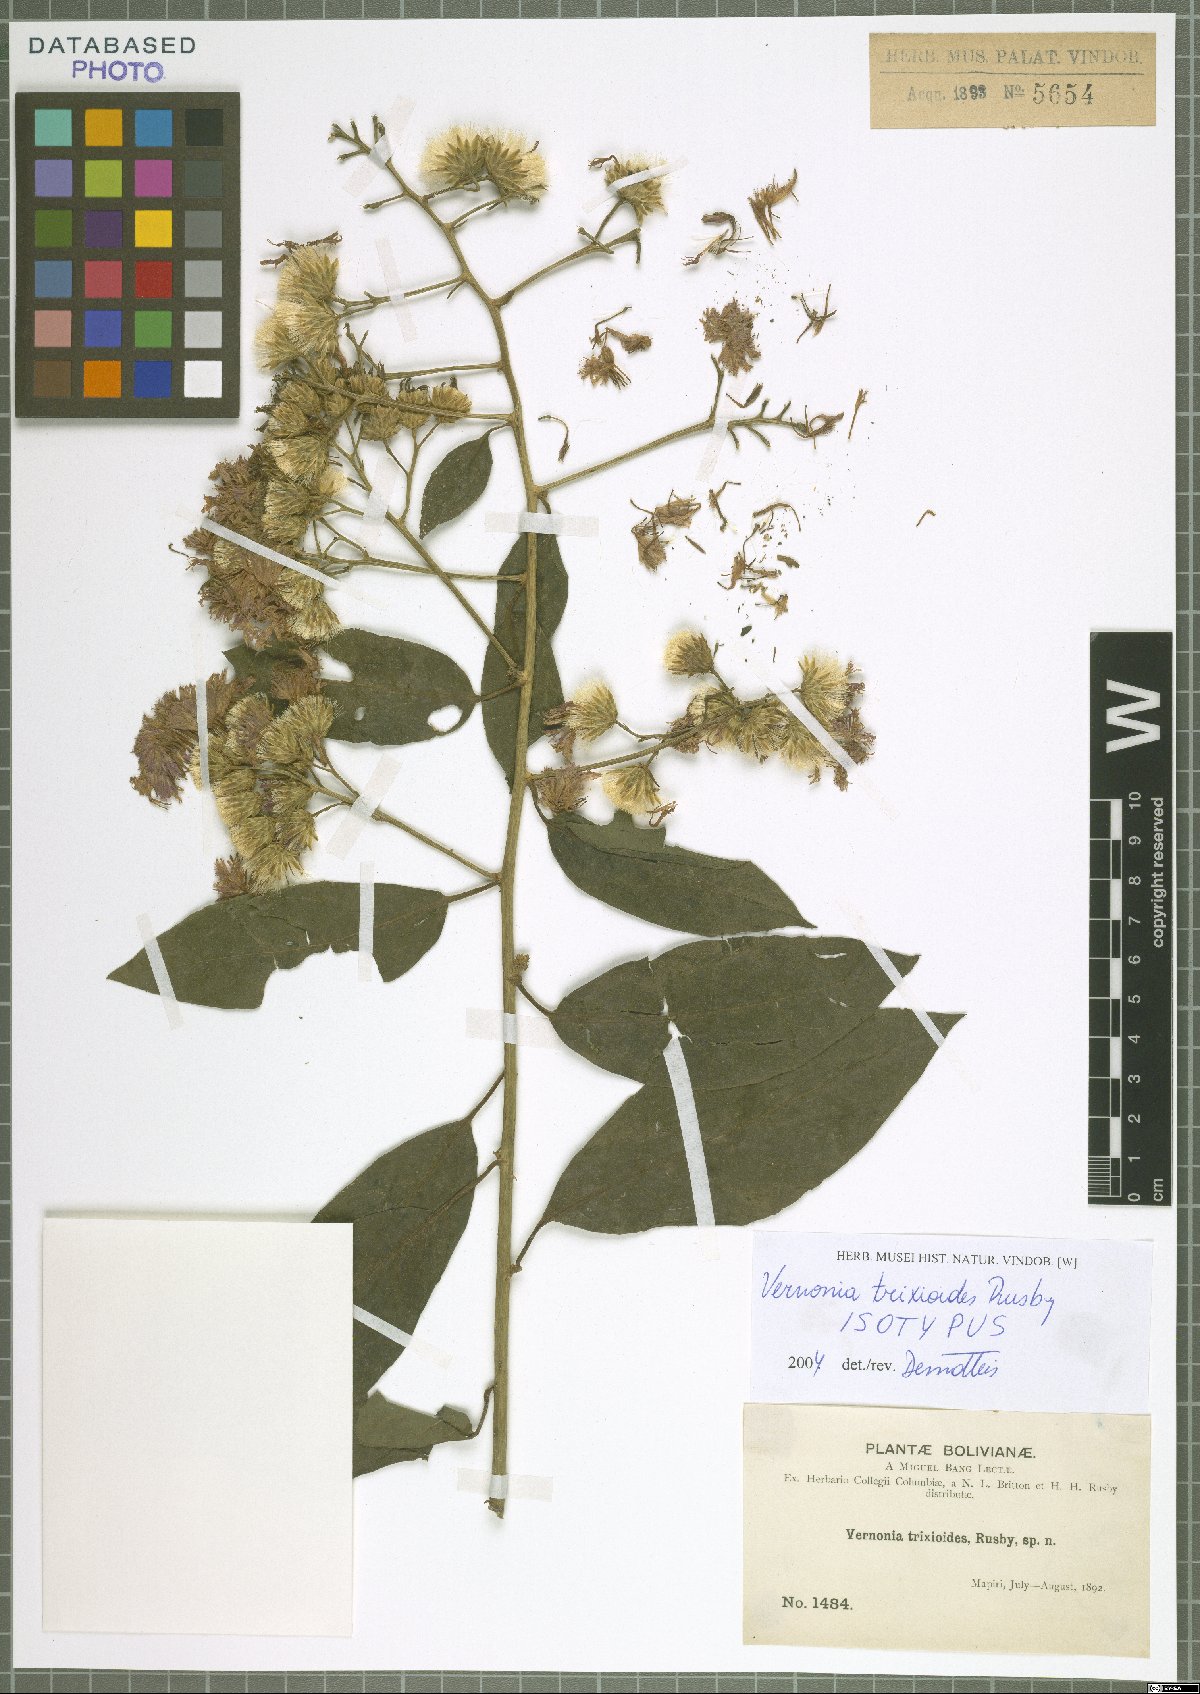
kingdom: Plantae
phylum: Tracheophyta
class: Magnoliopsida
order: Asterales
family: Asteraceae
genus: Quechualia
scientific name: Quechualia trixioides
